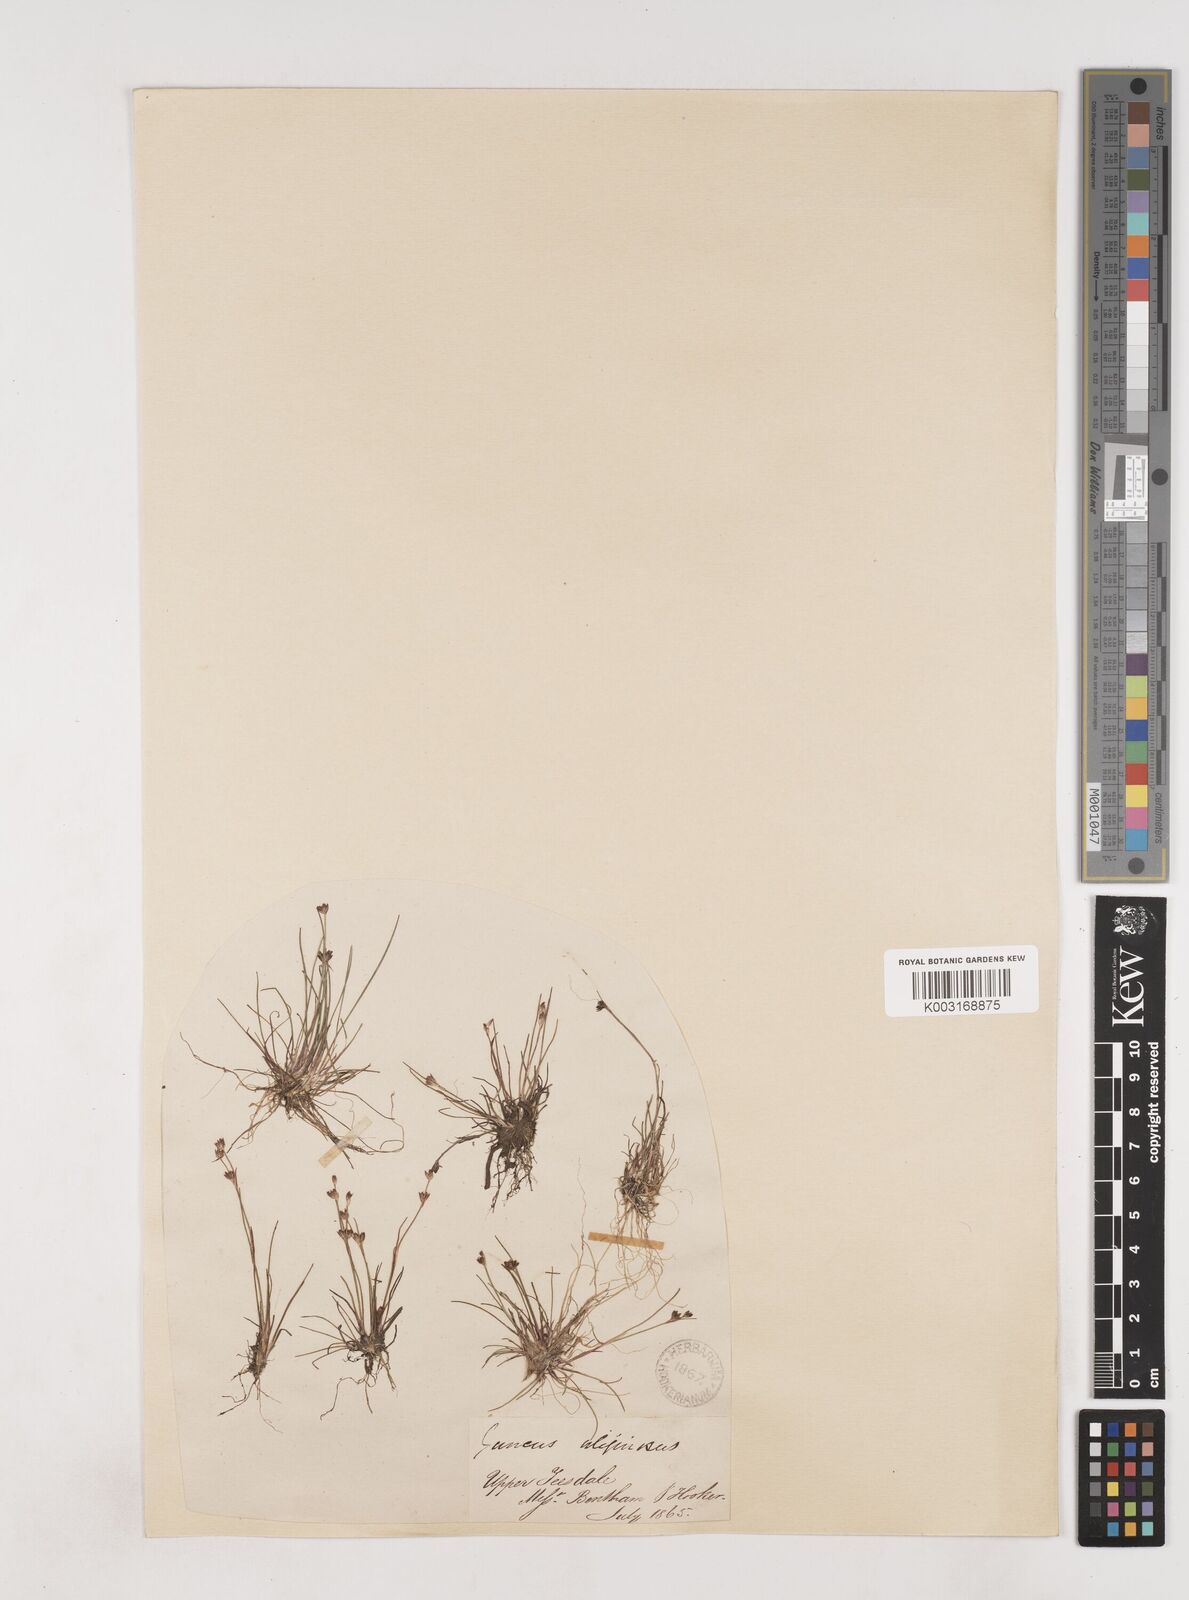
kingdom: Plantae
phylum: Tracheophyta
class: Liliopsida
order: Poales
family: Juncaceae
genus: Juncus
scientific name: Juncus bulbosus
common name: Bulbous rush
